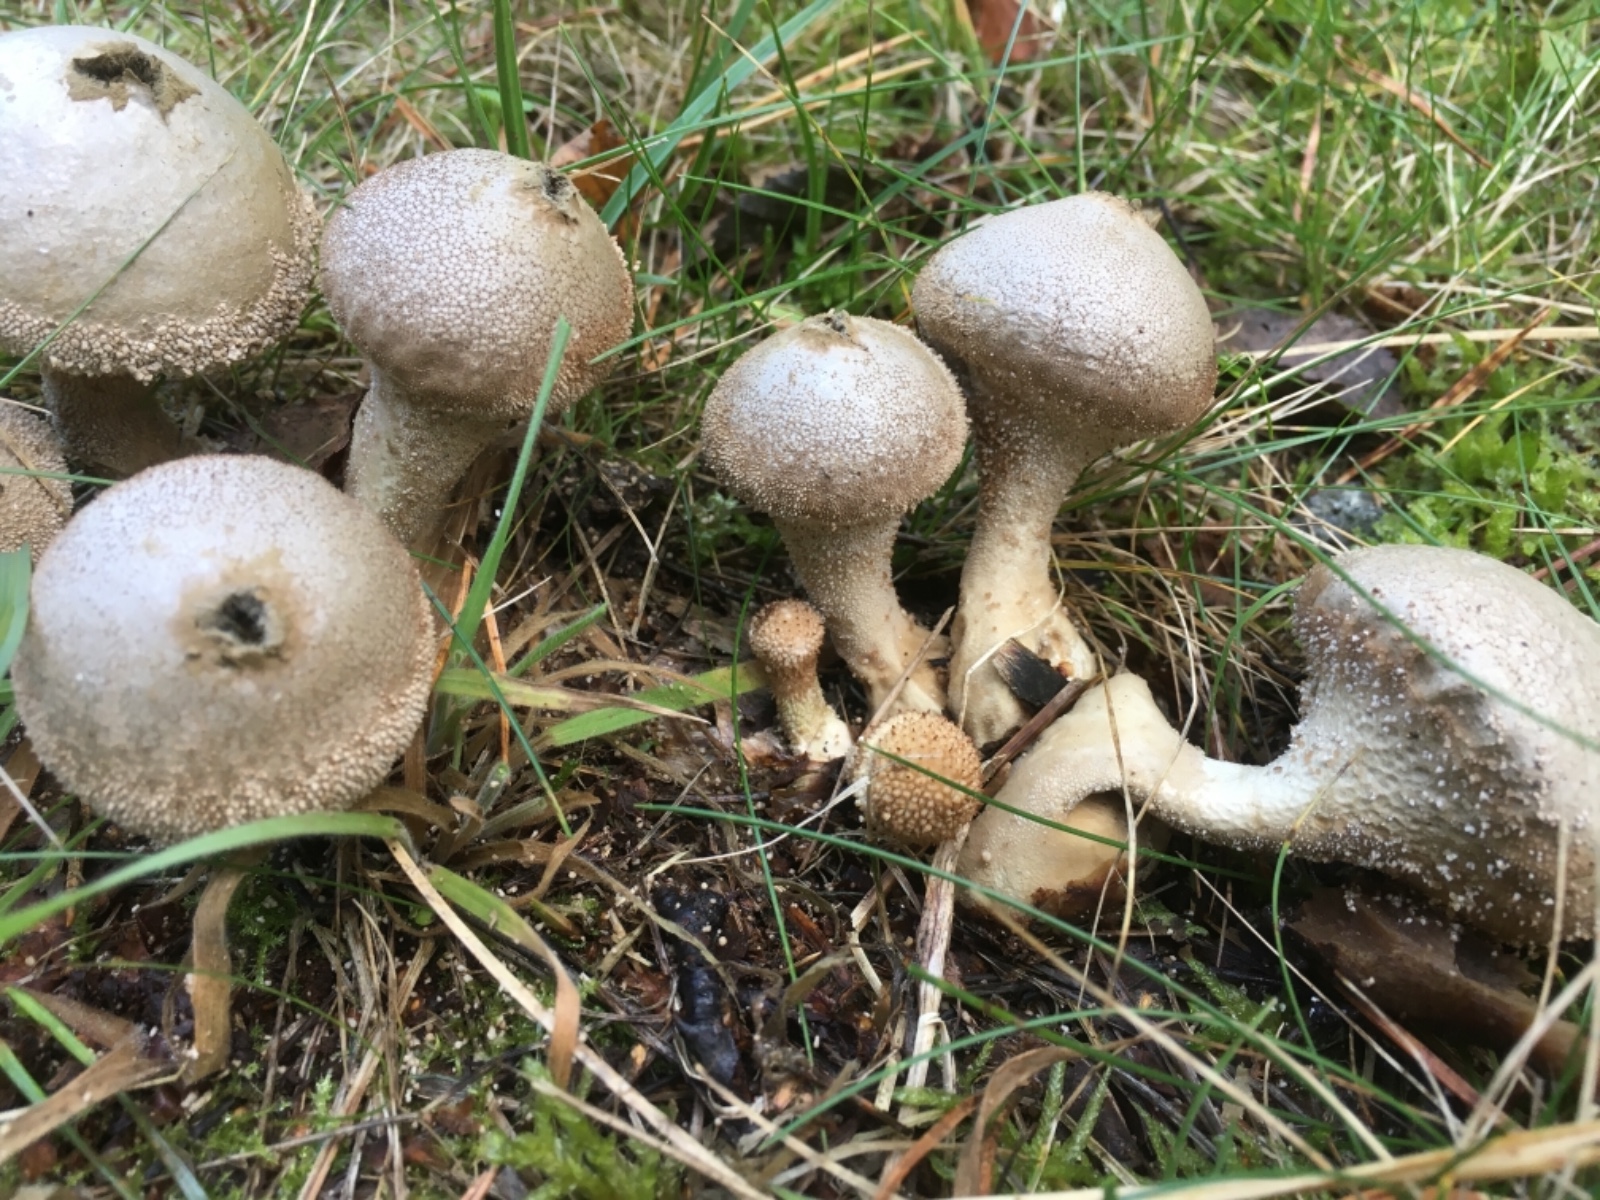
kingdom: Fungi
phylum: Basidiomycota
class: Agaricomycetes
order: Agaricales
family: Lycoperdaceae
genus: Lycoperdon
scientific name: Lycoperdon perlatum
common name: krystal-støvbold
